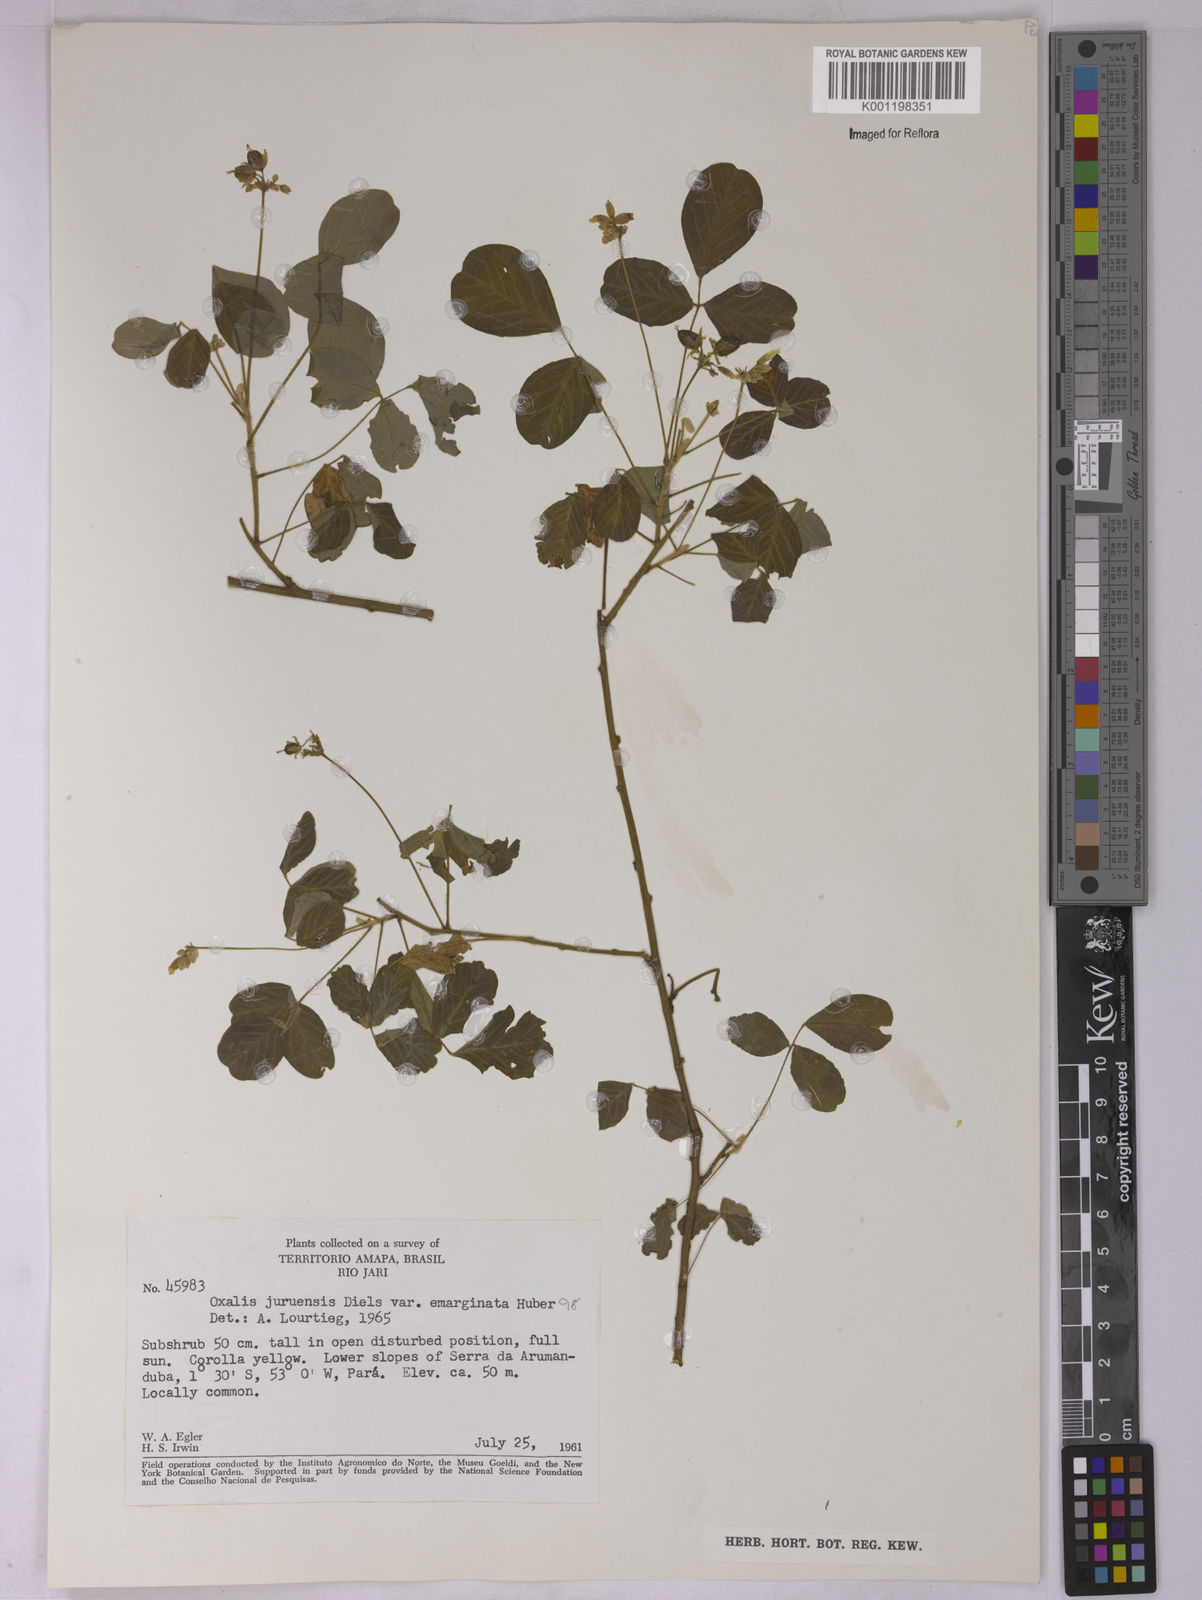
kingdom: Plantae
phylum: Tracheophyta
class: Magnoliopsida
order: Oxalidales
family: Oxalidaceae
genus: Oxalis
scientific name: Oxalis juruensis
